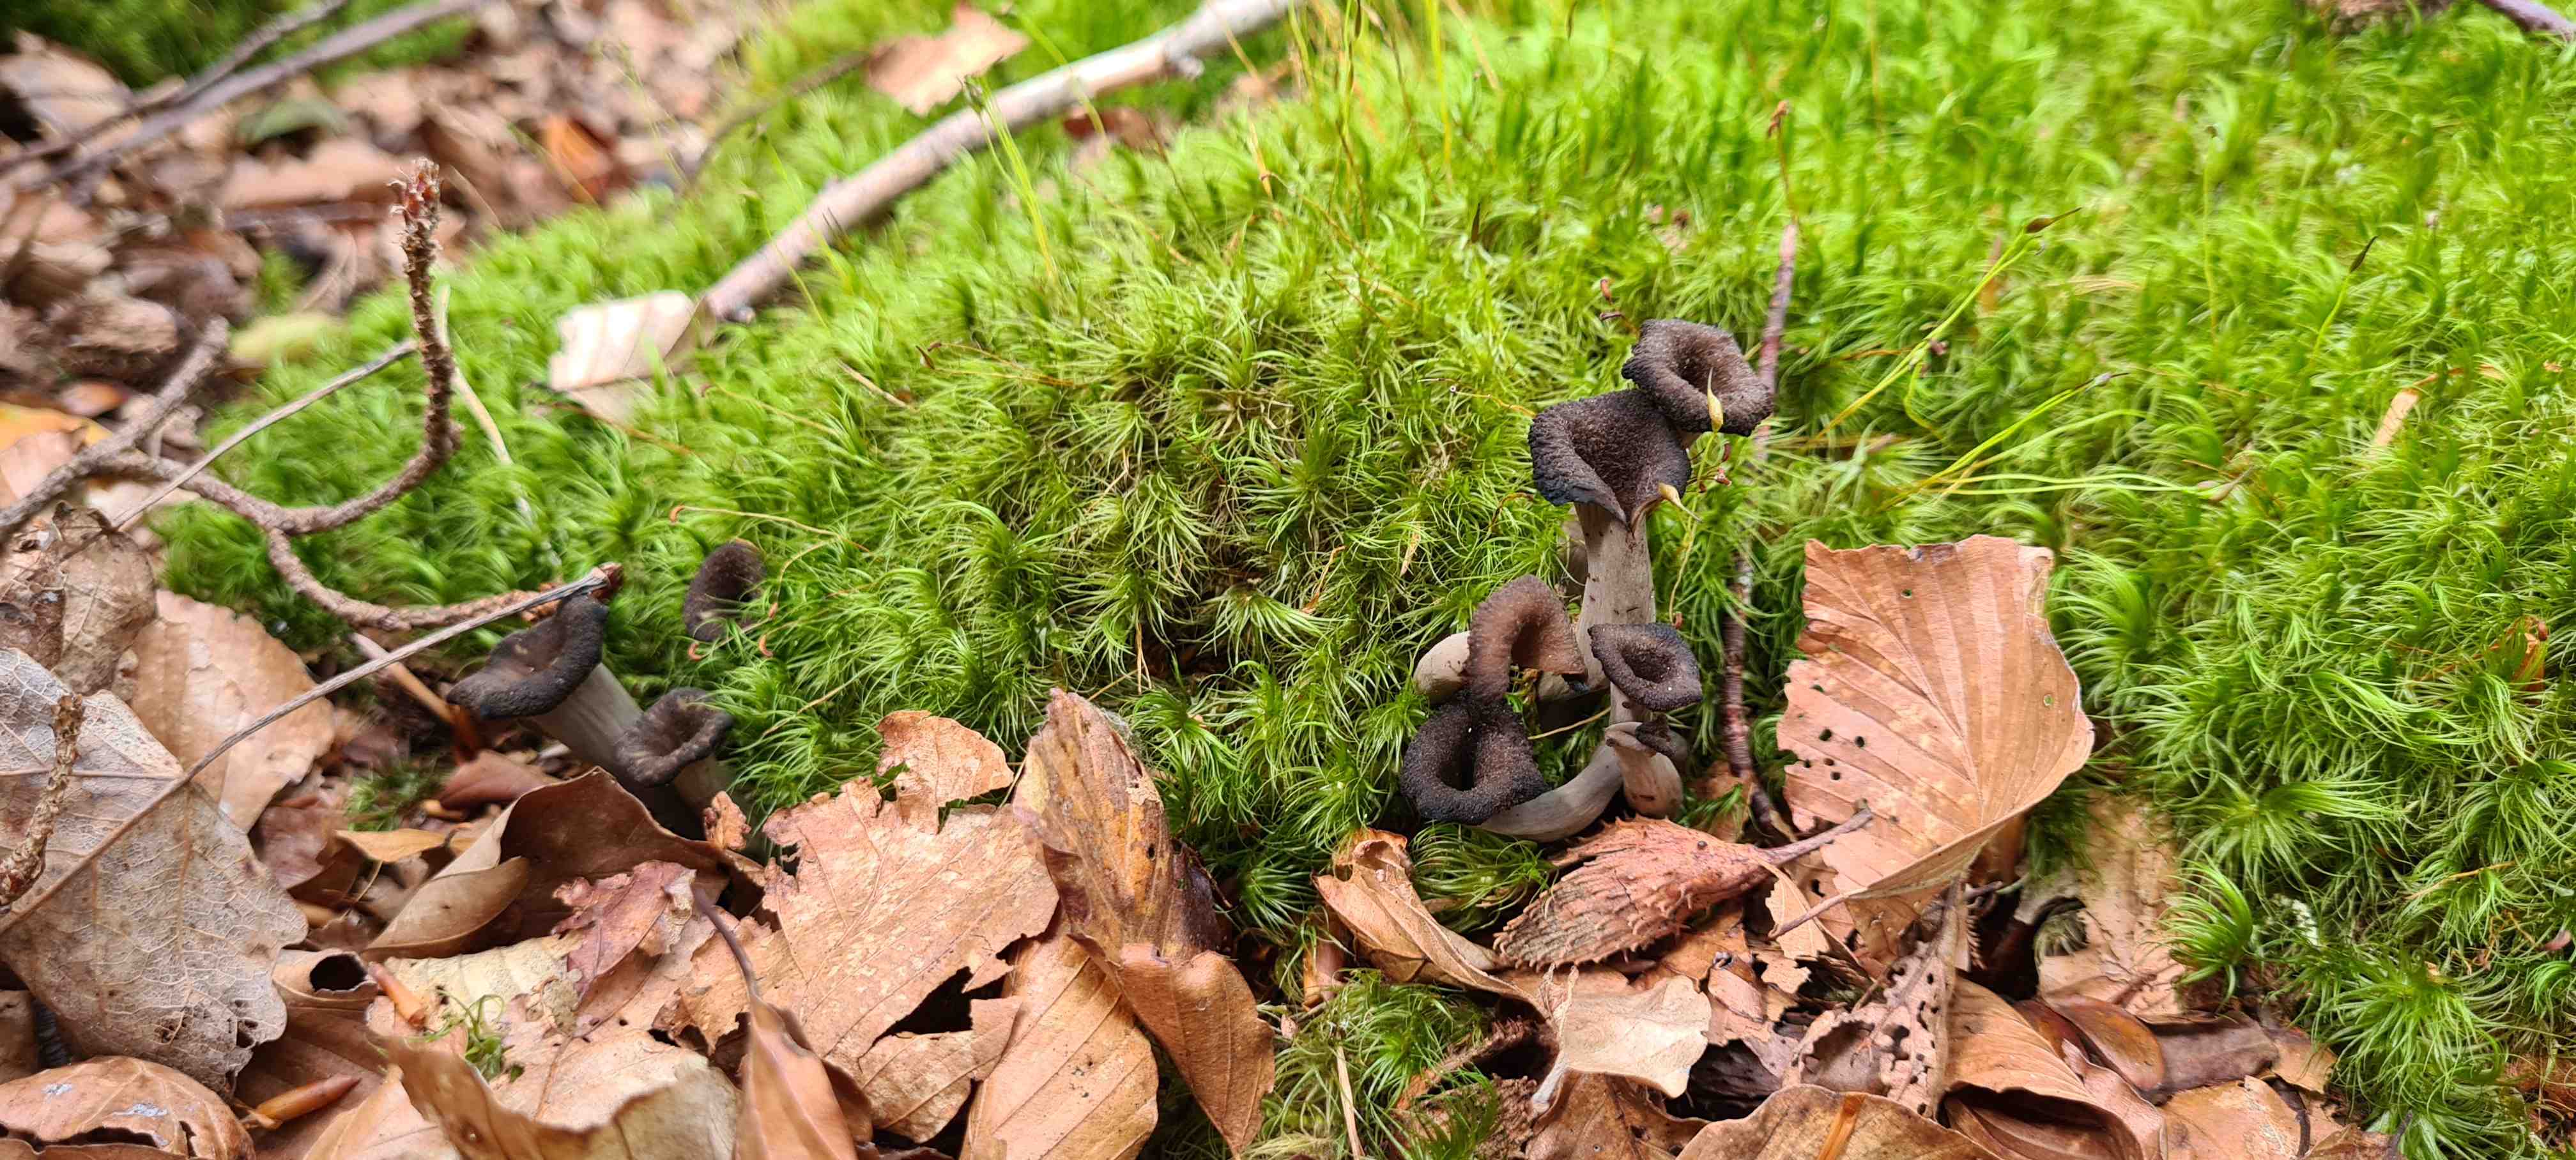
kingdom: Fungi
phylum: Basidiomycota
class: Agaricomycetes
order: Cantharellales
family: Hydnaceae
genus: Craterellus
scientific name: Craterellus cornucopioides
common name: trompetsvamp
